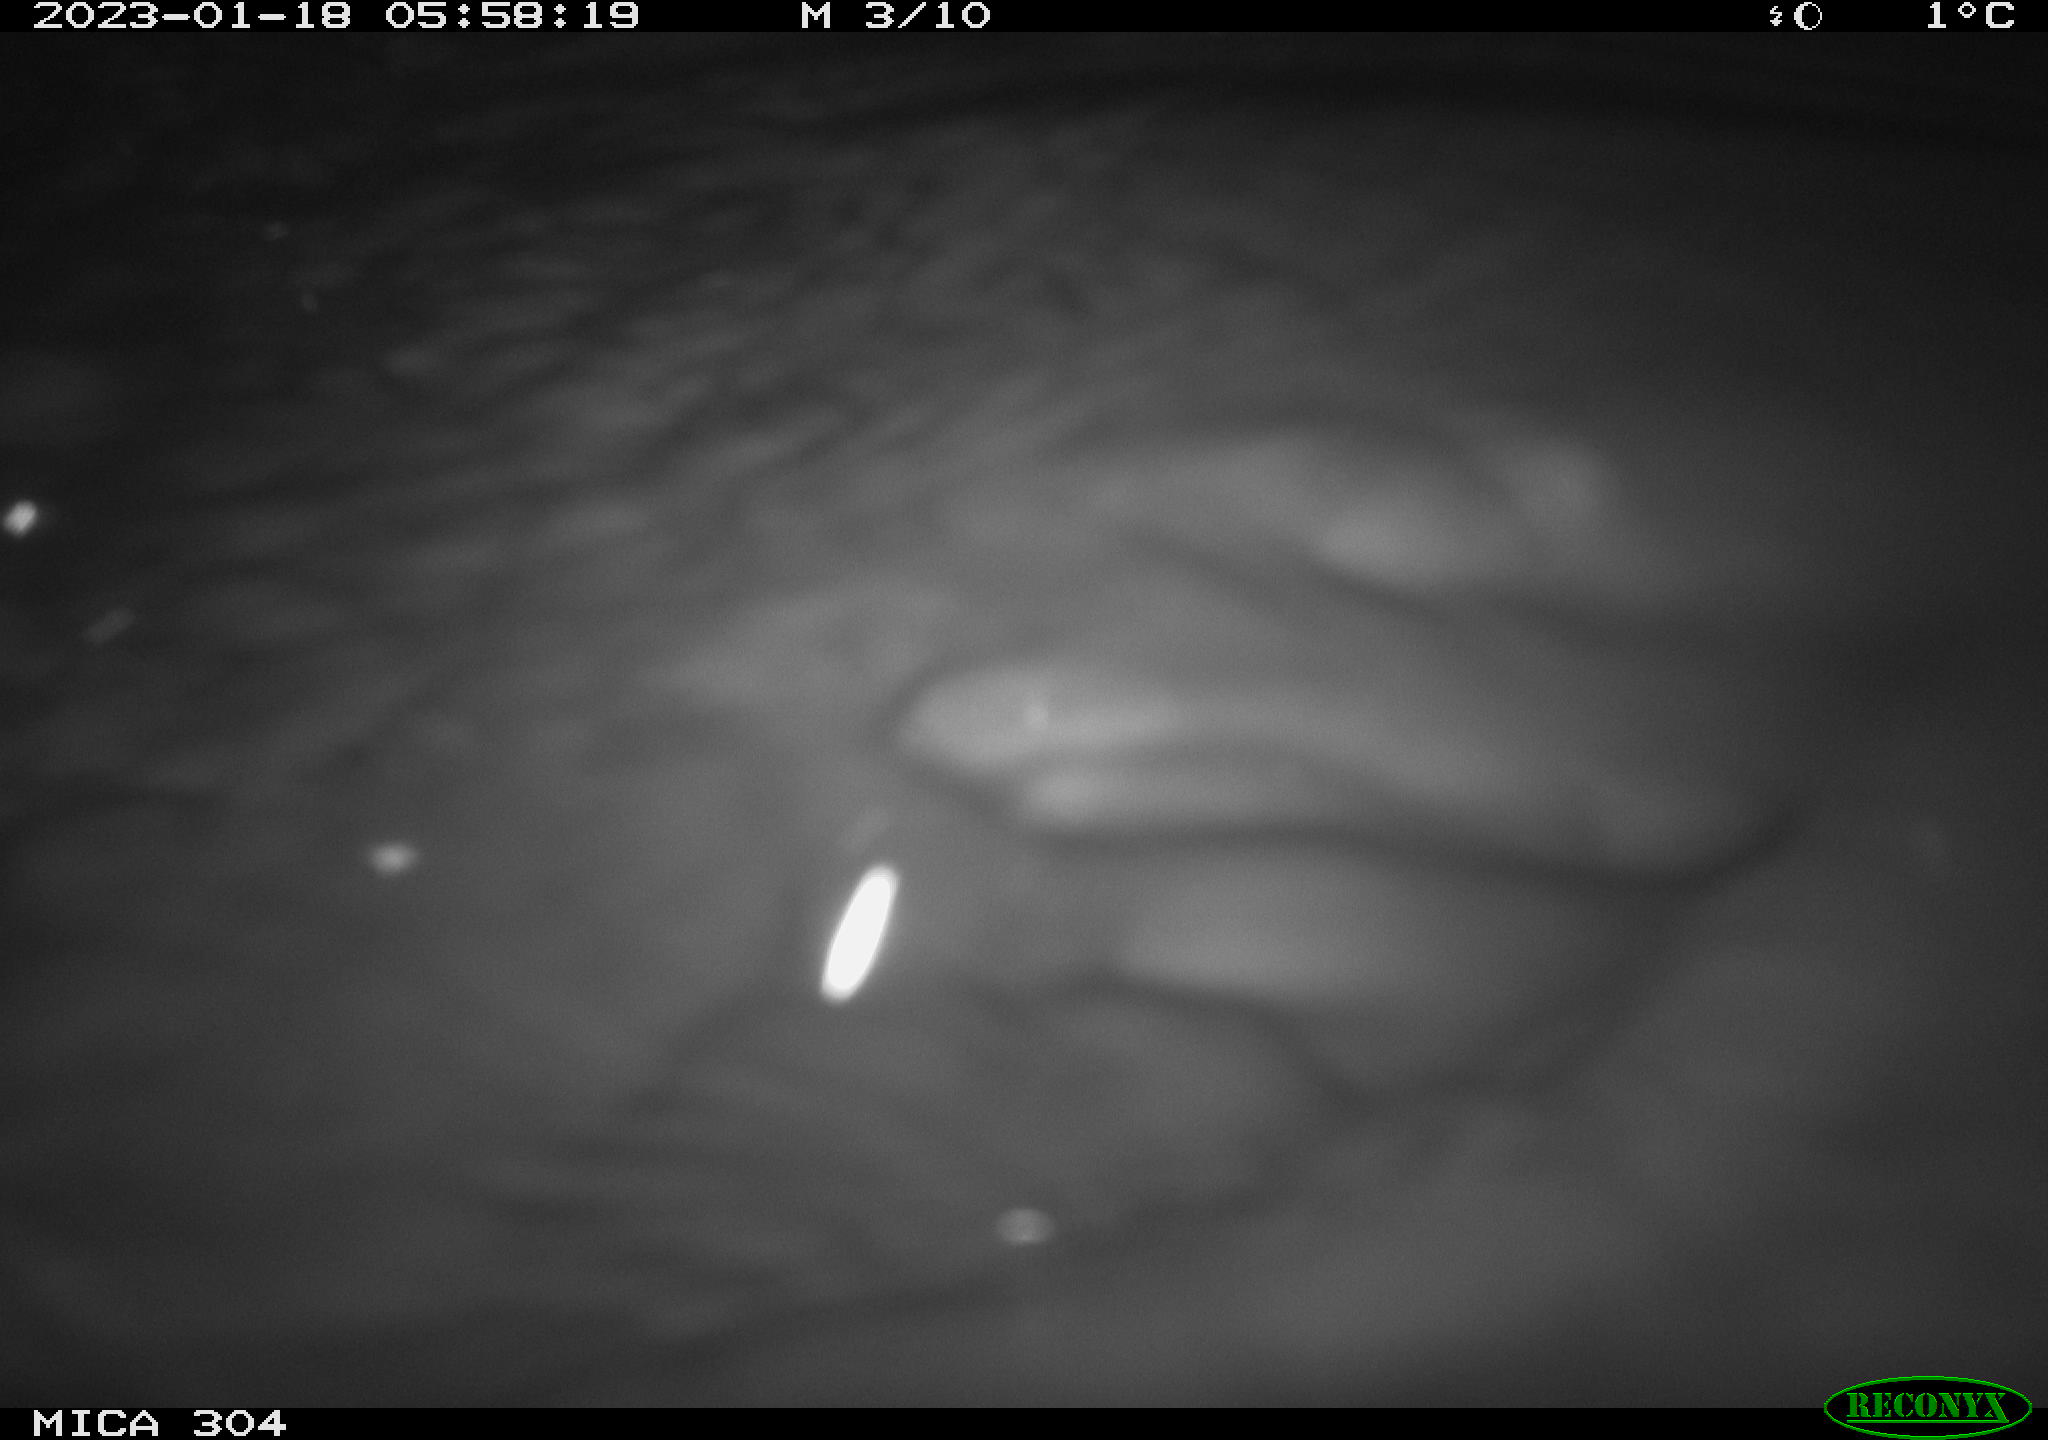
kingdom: Animalia
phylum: Chordata
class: Mammalia
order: Rodentia
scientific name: Rodentia
